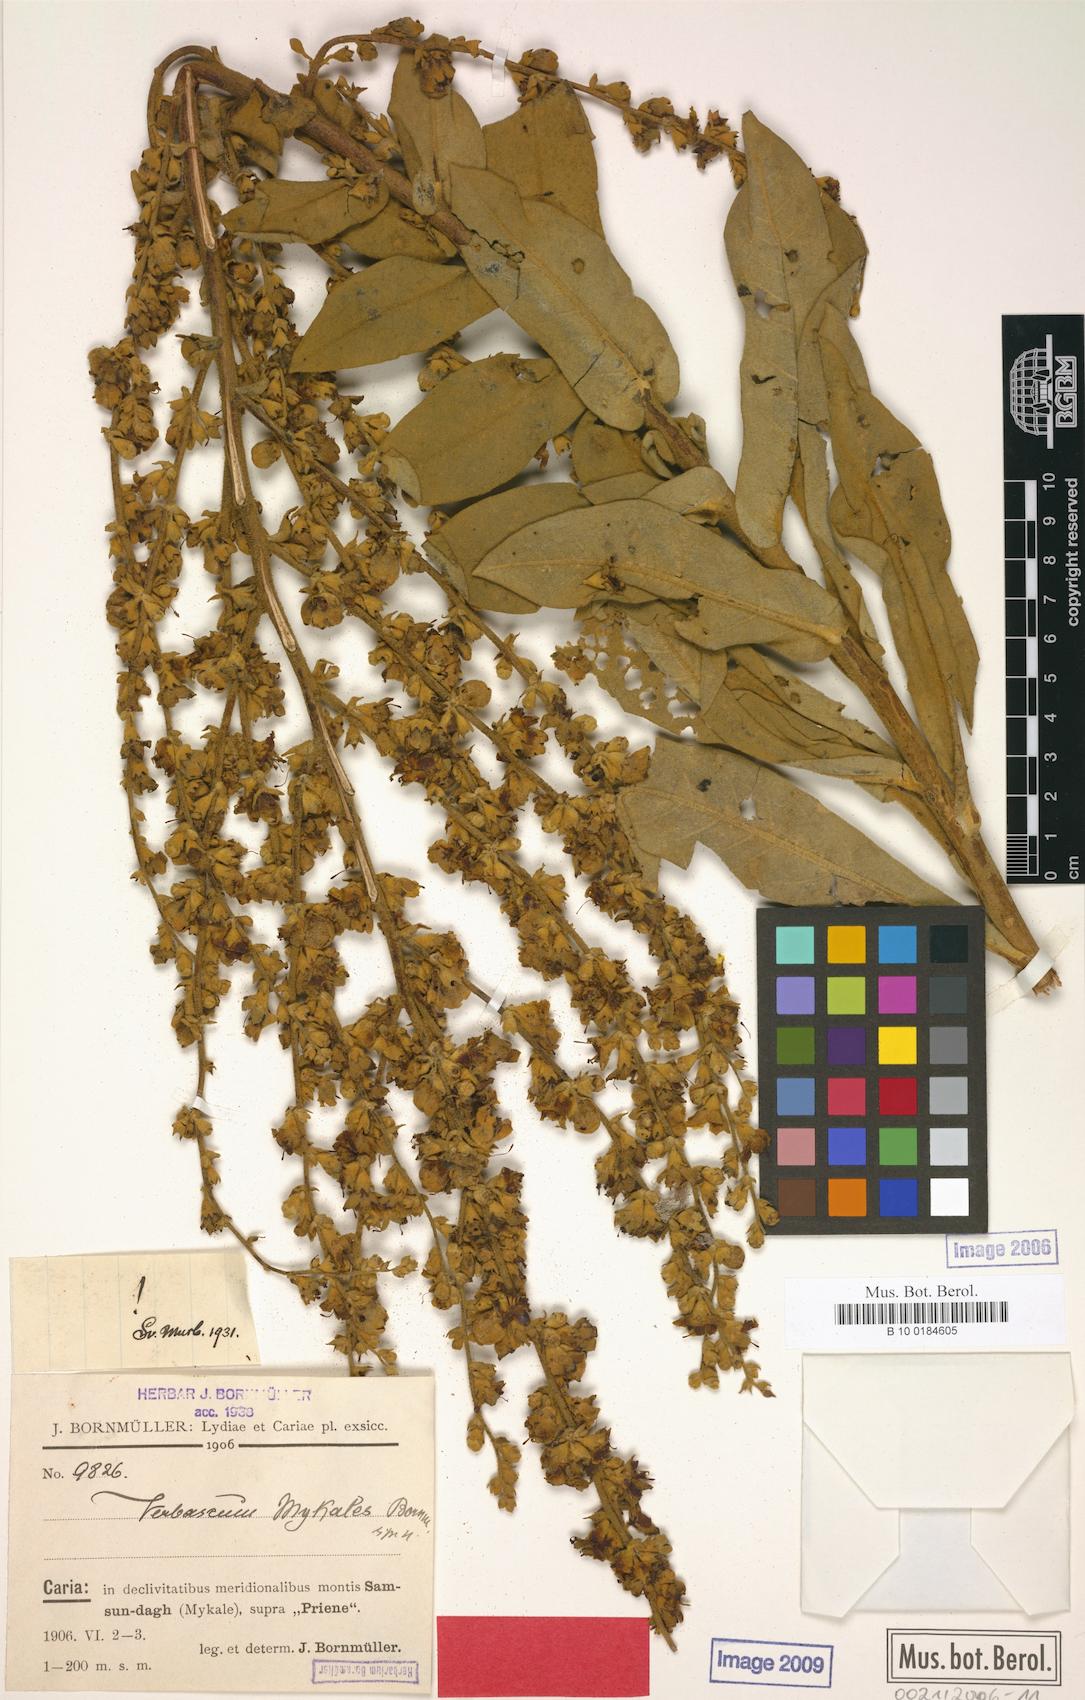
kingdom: Plantae
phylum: Tracheophyta
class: Magnoliopsida
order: Lamiales
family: Scrophulariaceae
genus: Verbascum
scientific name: Verbascum mykales
